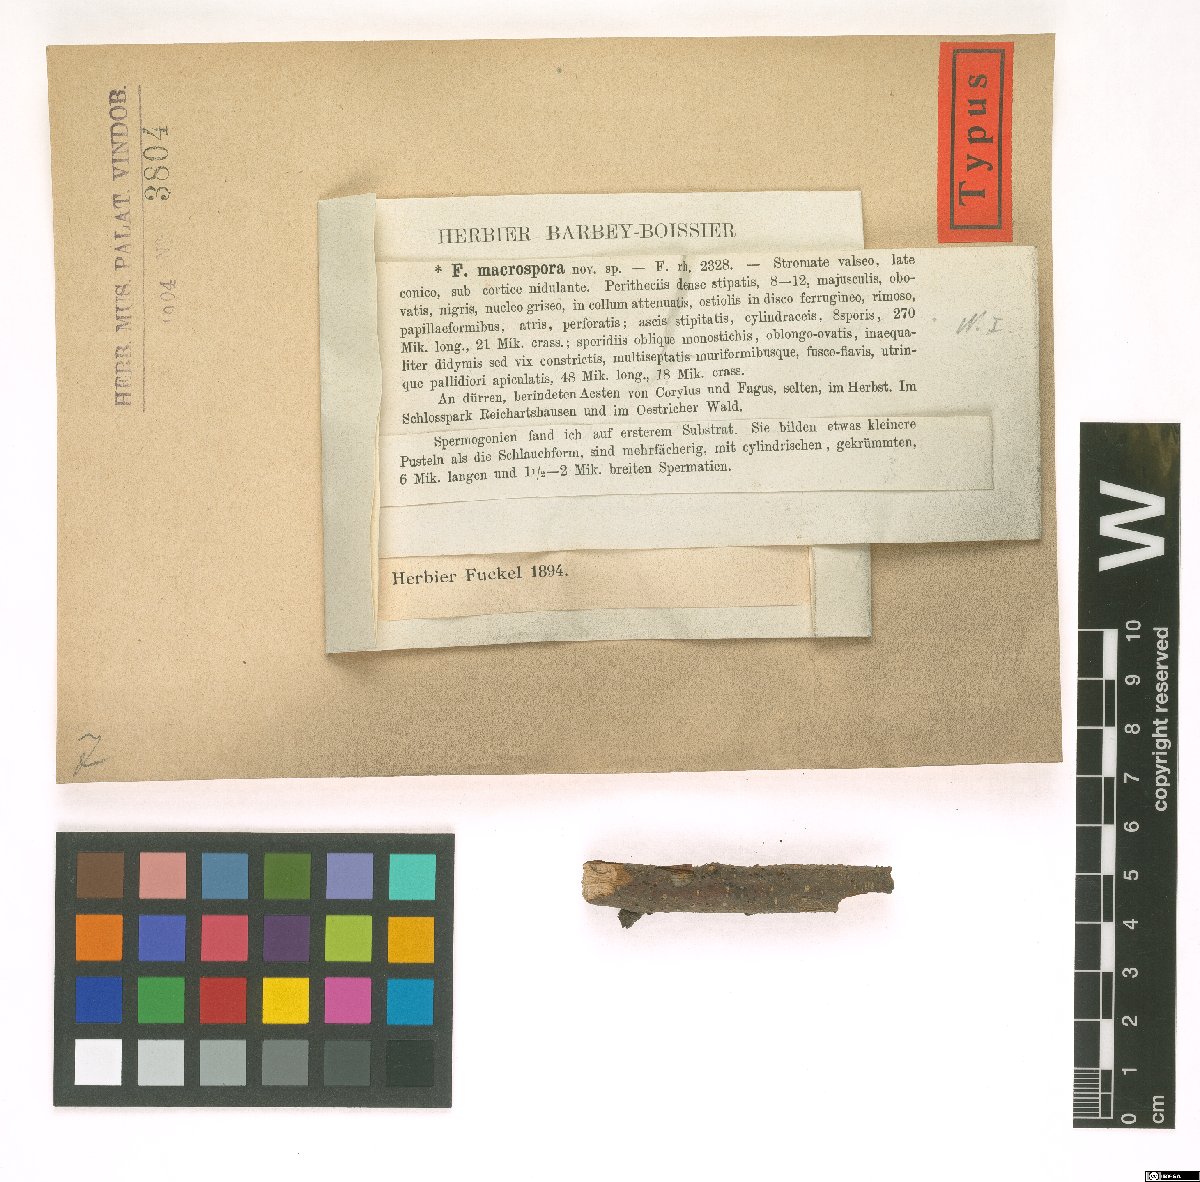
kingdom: Fungi
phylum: Ascomycota
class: Dothideomycetes
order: Pleosporales
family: Fenestellaceae
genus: Fenestella
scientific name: Fenestella macrospora
